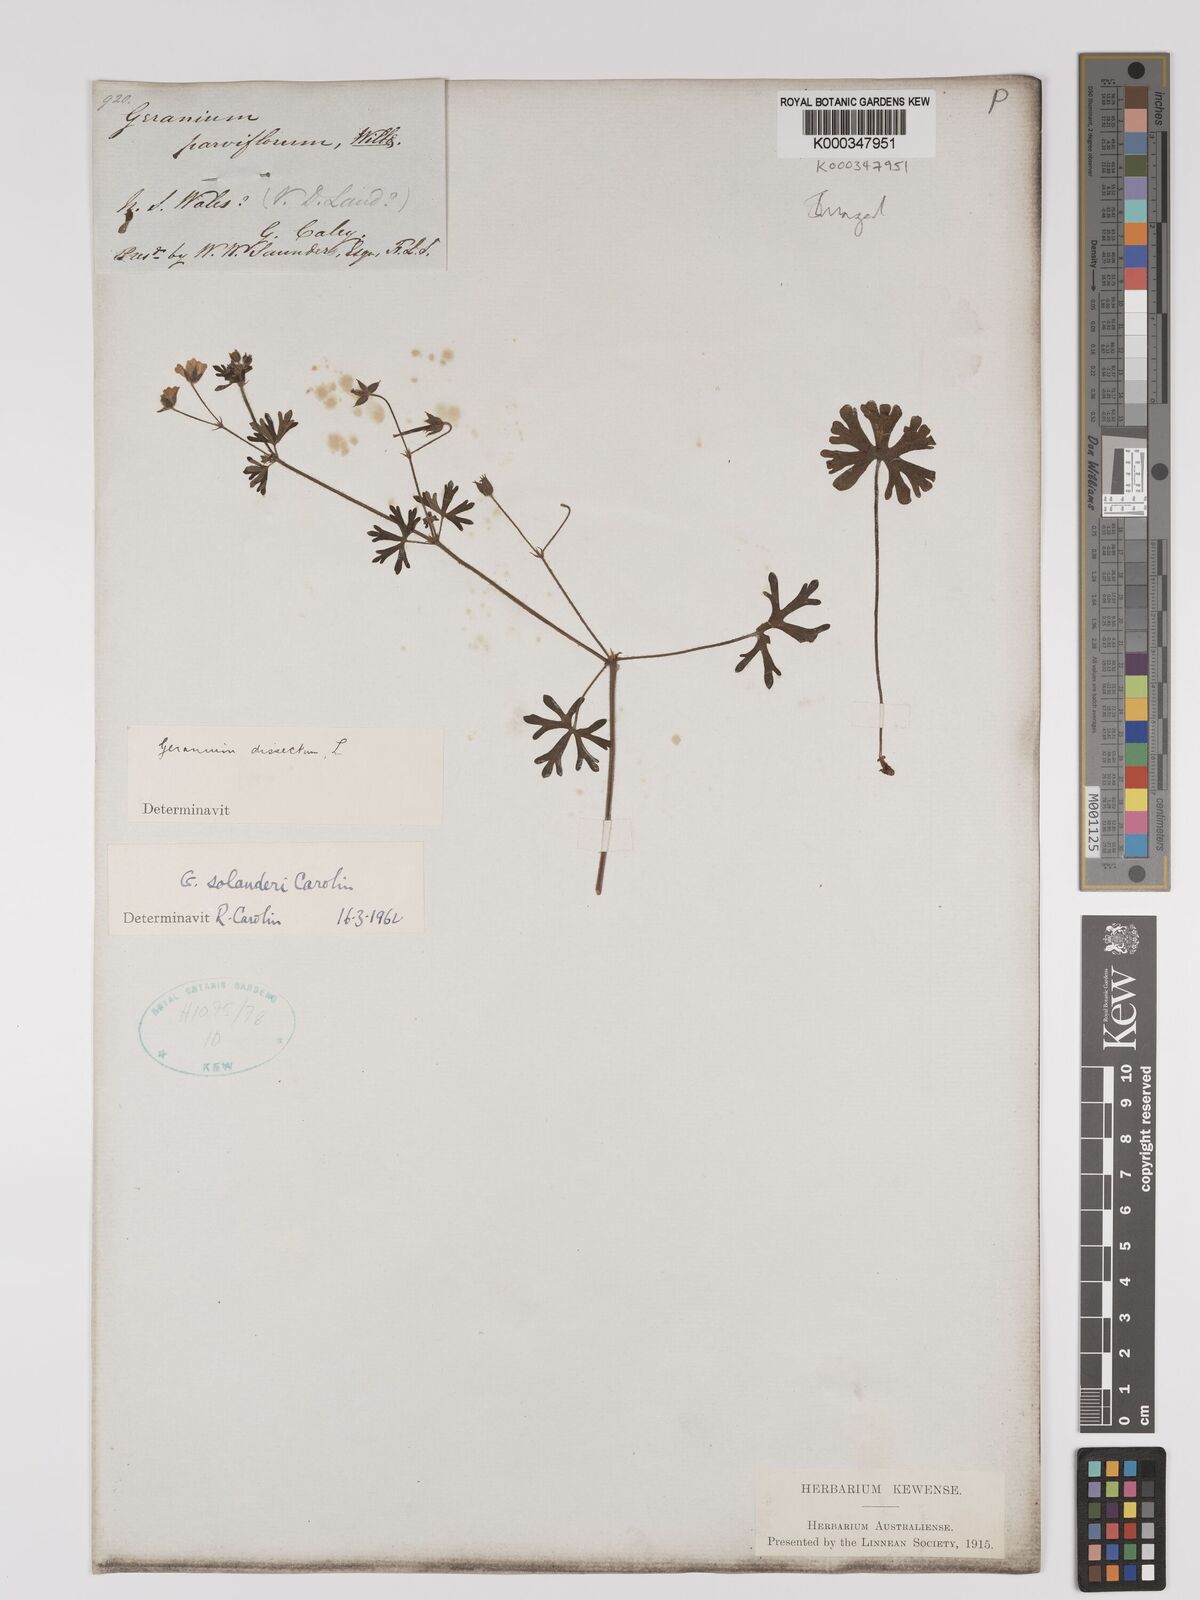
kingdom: Plantae
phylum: Tracheophyta
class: Magnoliopsida
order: Geraniales
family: Geraniaceae
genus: Geranium
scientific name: Geranium solanderi
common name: Solander's geranium
